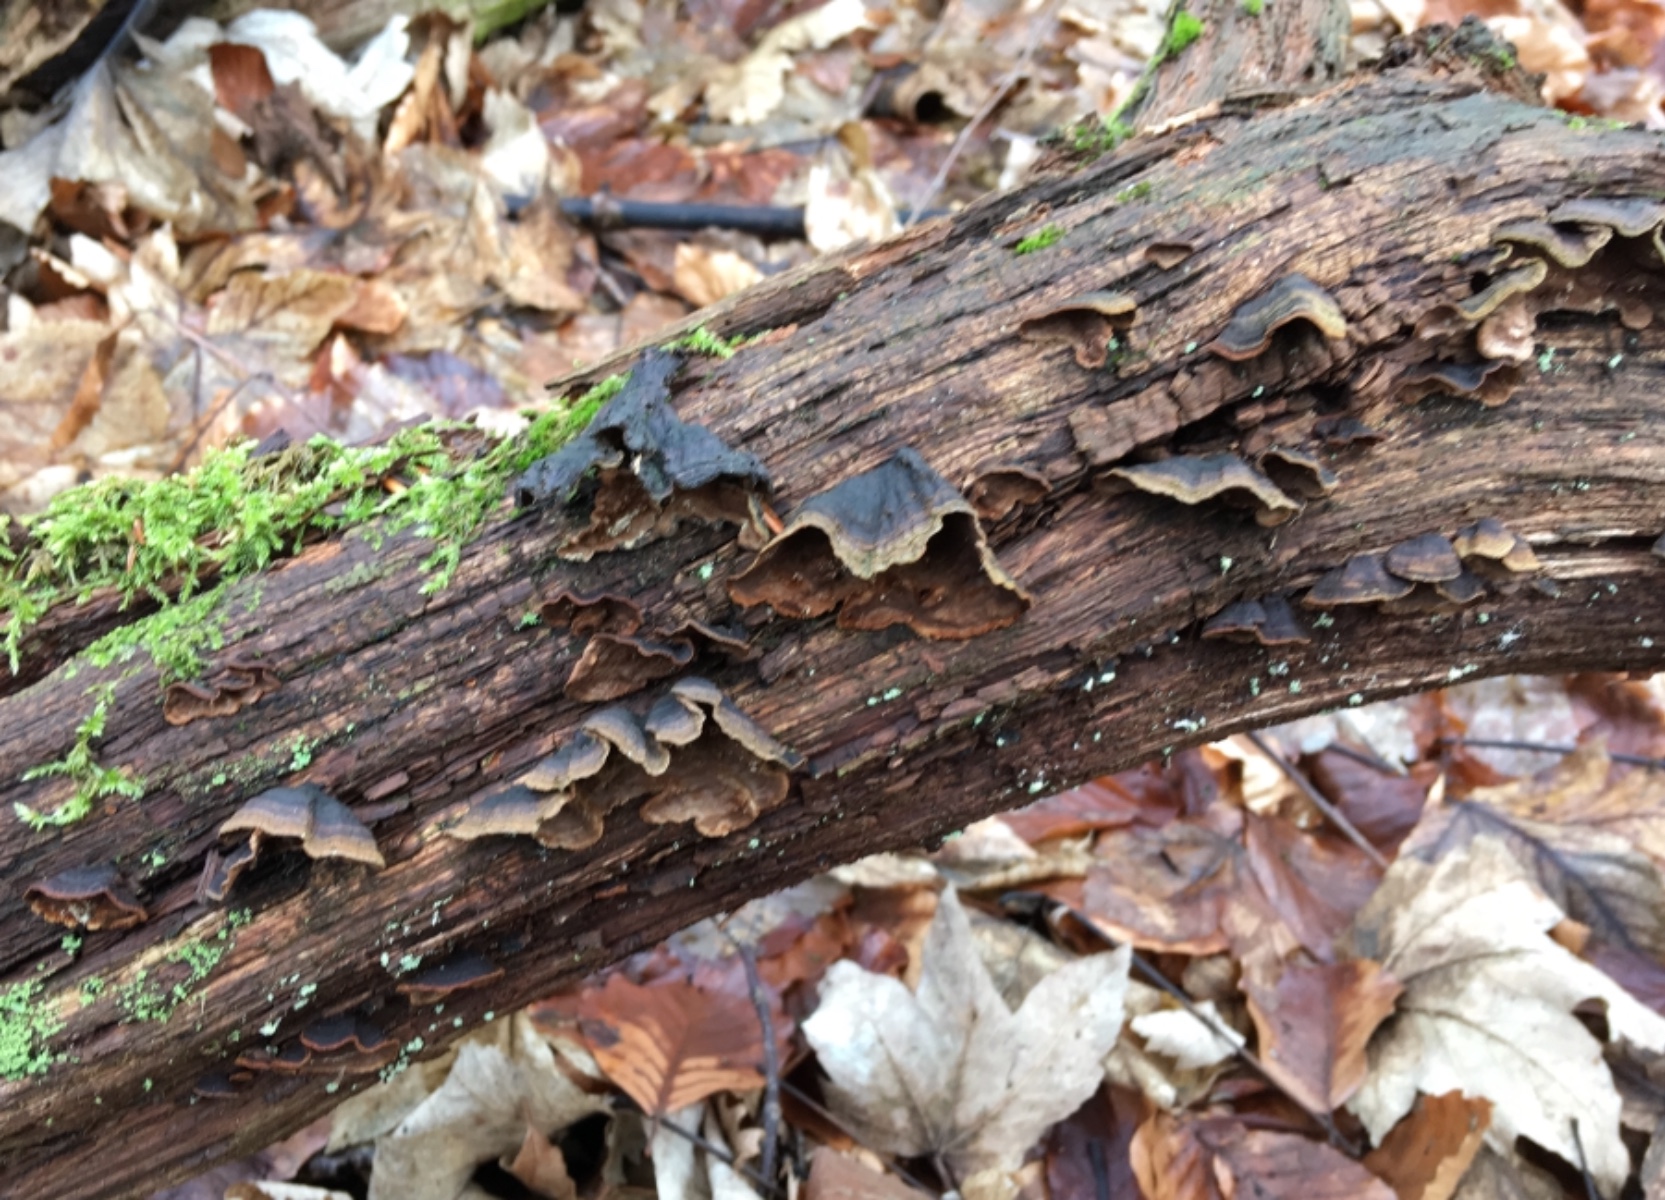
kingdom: Fungi
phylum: Basidiomycota
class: Agaricomycetes
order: Hymenochaetales
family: Hymenochaetaceae
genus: Hymenochaete
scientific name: Hymenochaete rubiginosa
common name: stiv ruslædersvamp
